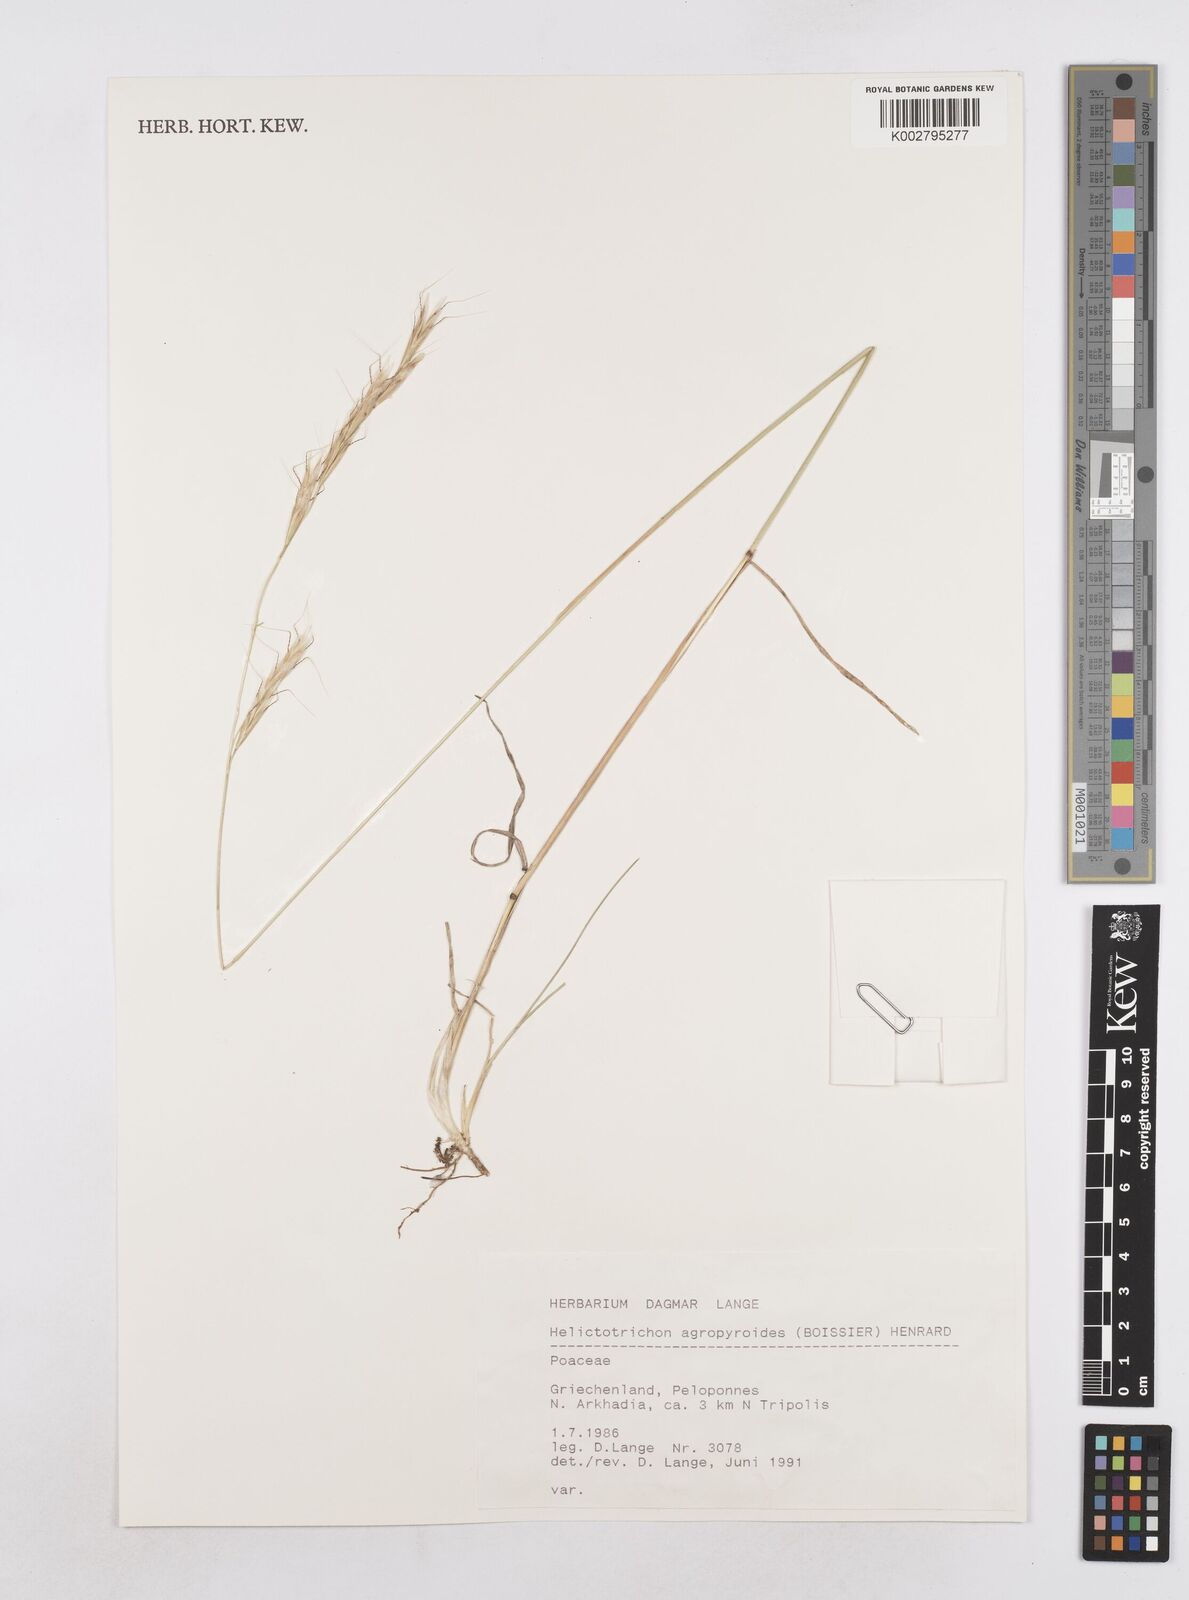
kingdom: Plantae
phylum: Tracheophyta
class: Liliopsida
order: Poales
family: Poaceae
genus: Helictochloa
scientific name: Helictochloa agropyroides
